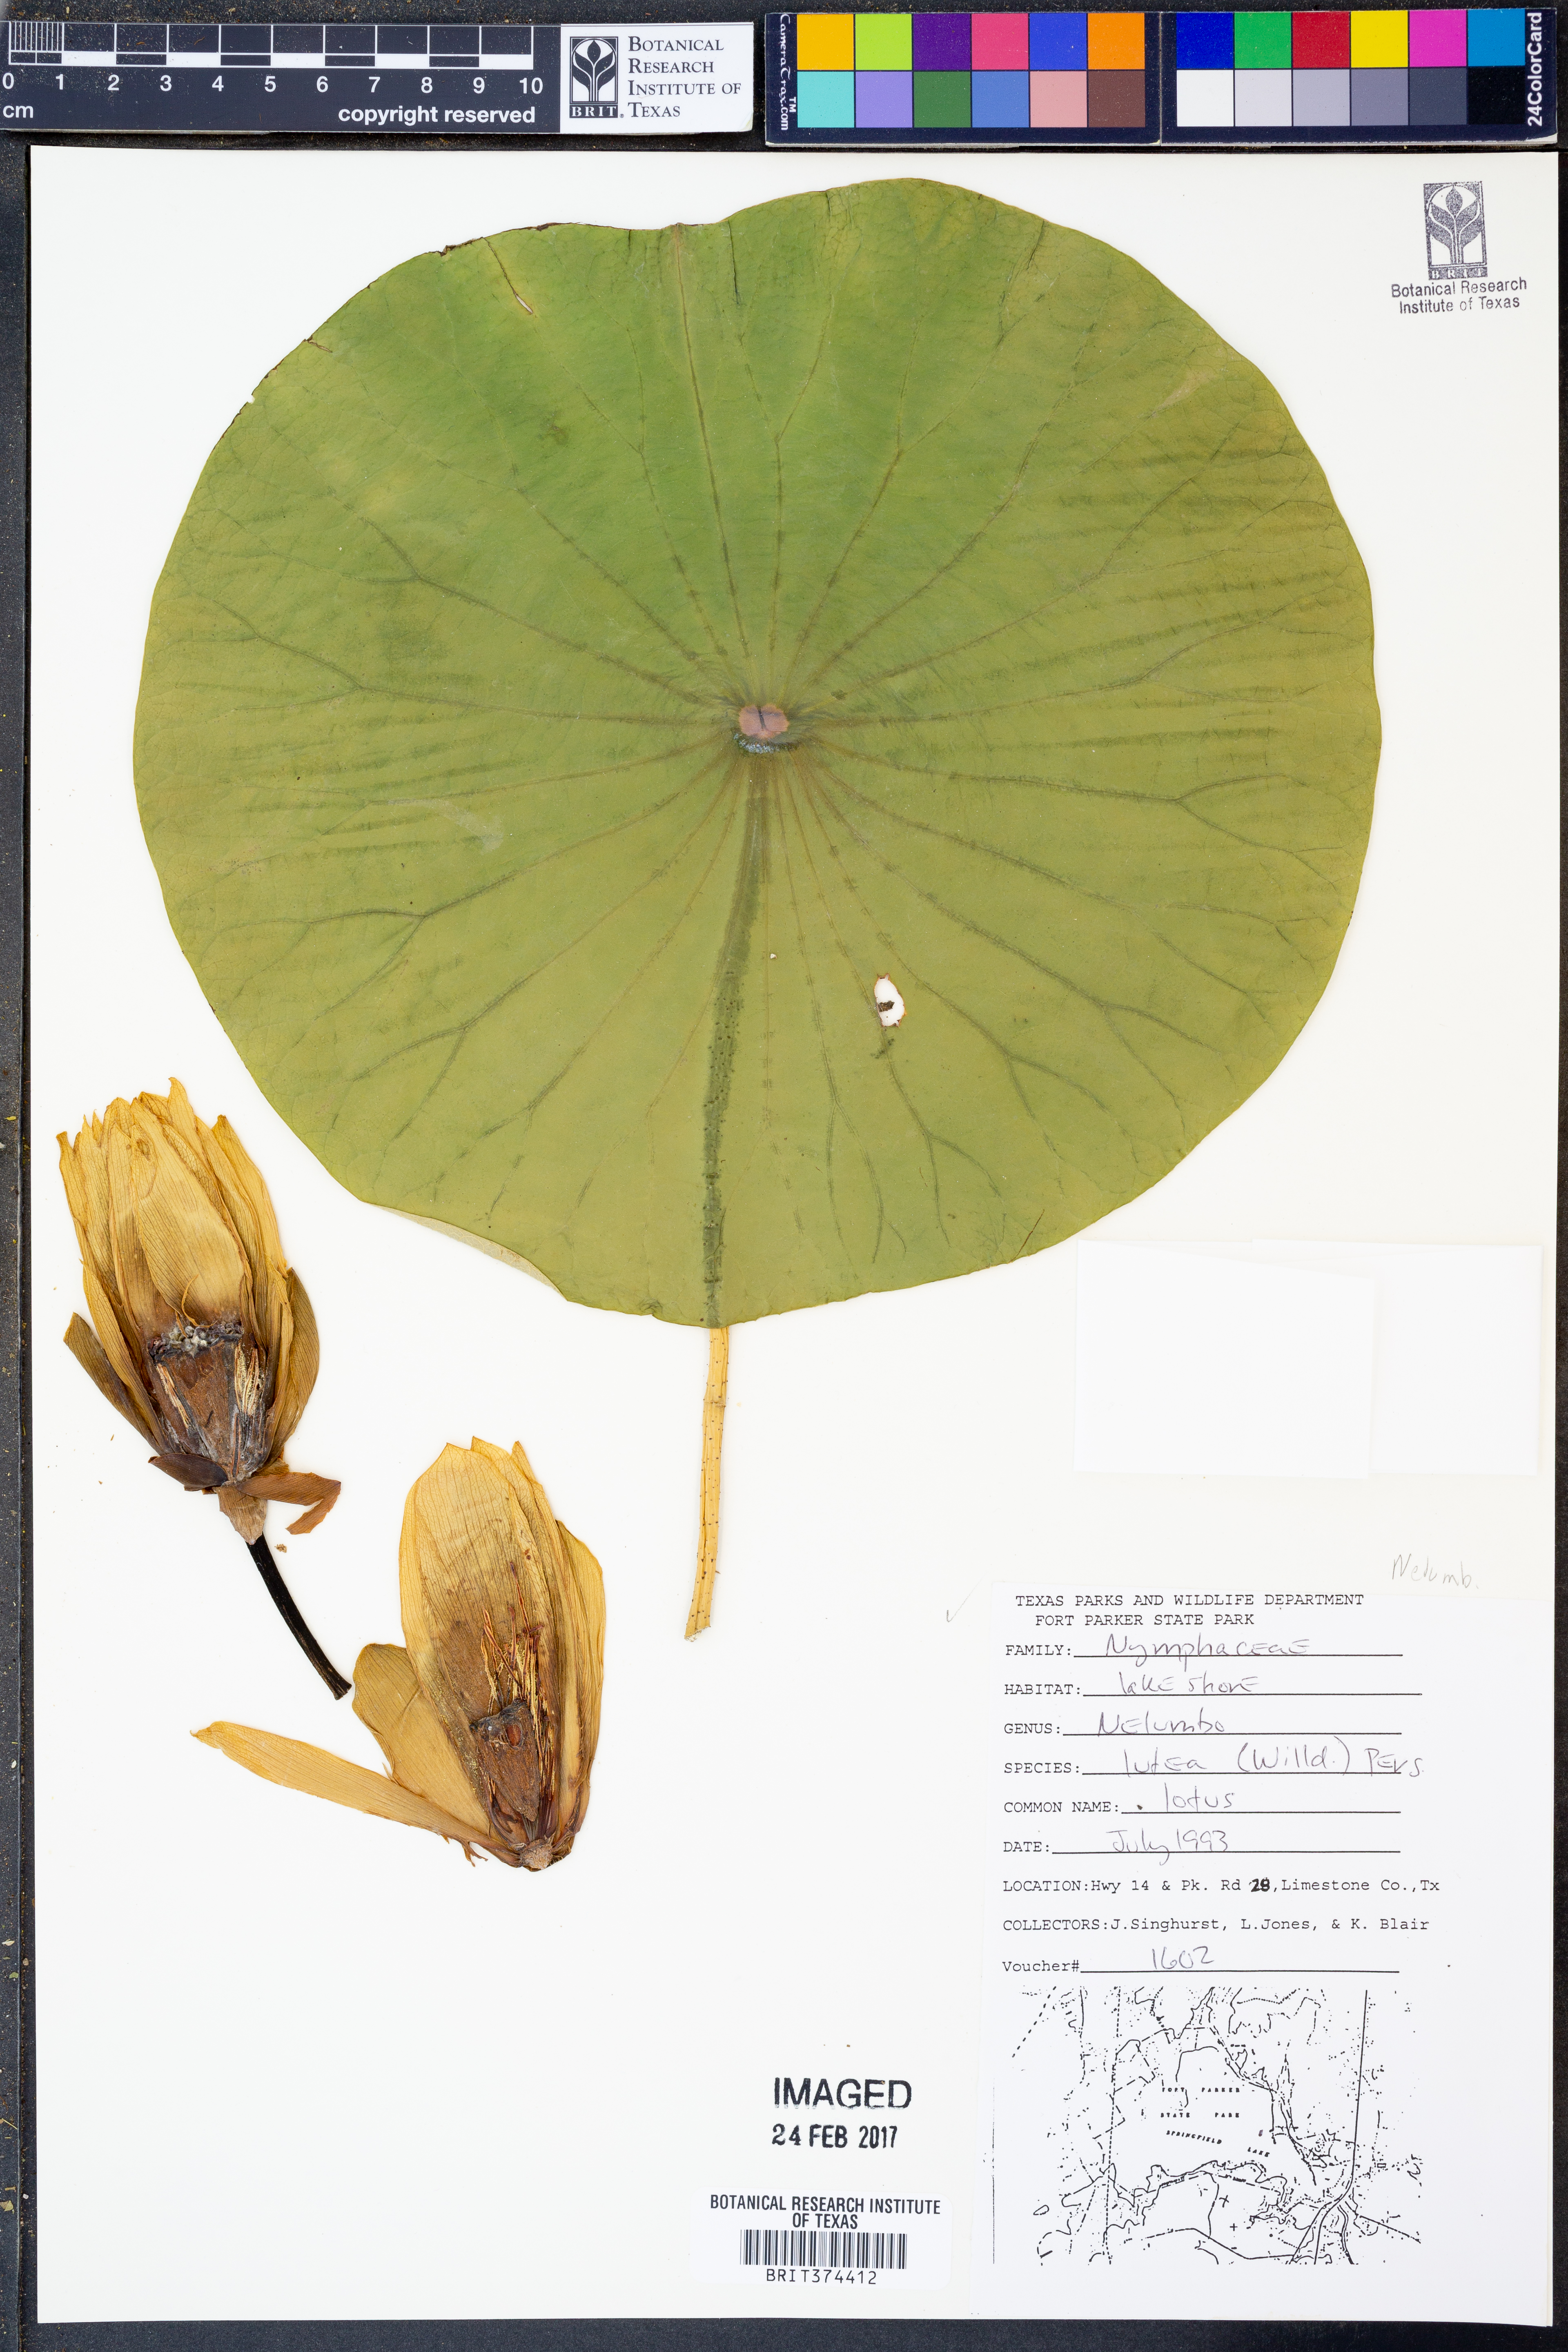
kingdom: Plantae
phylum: Tracheophyta
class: Magnoliopsida
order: Proteales
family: Nelumbonaceae
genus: Nelumbo
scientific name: Nelumbo lutea
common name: American lotus
